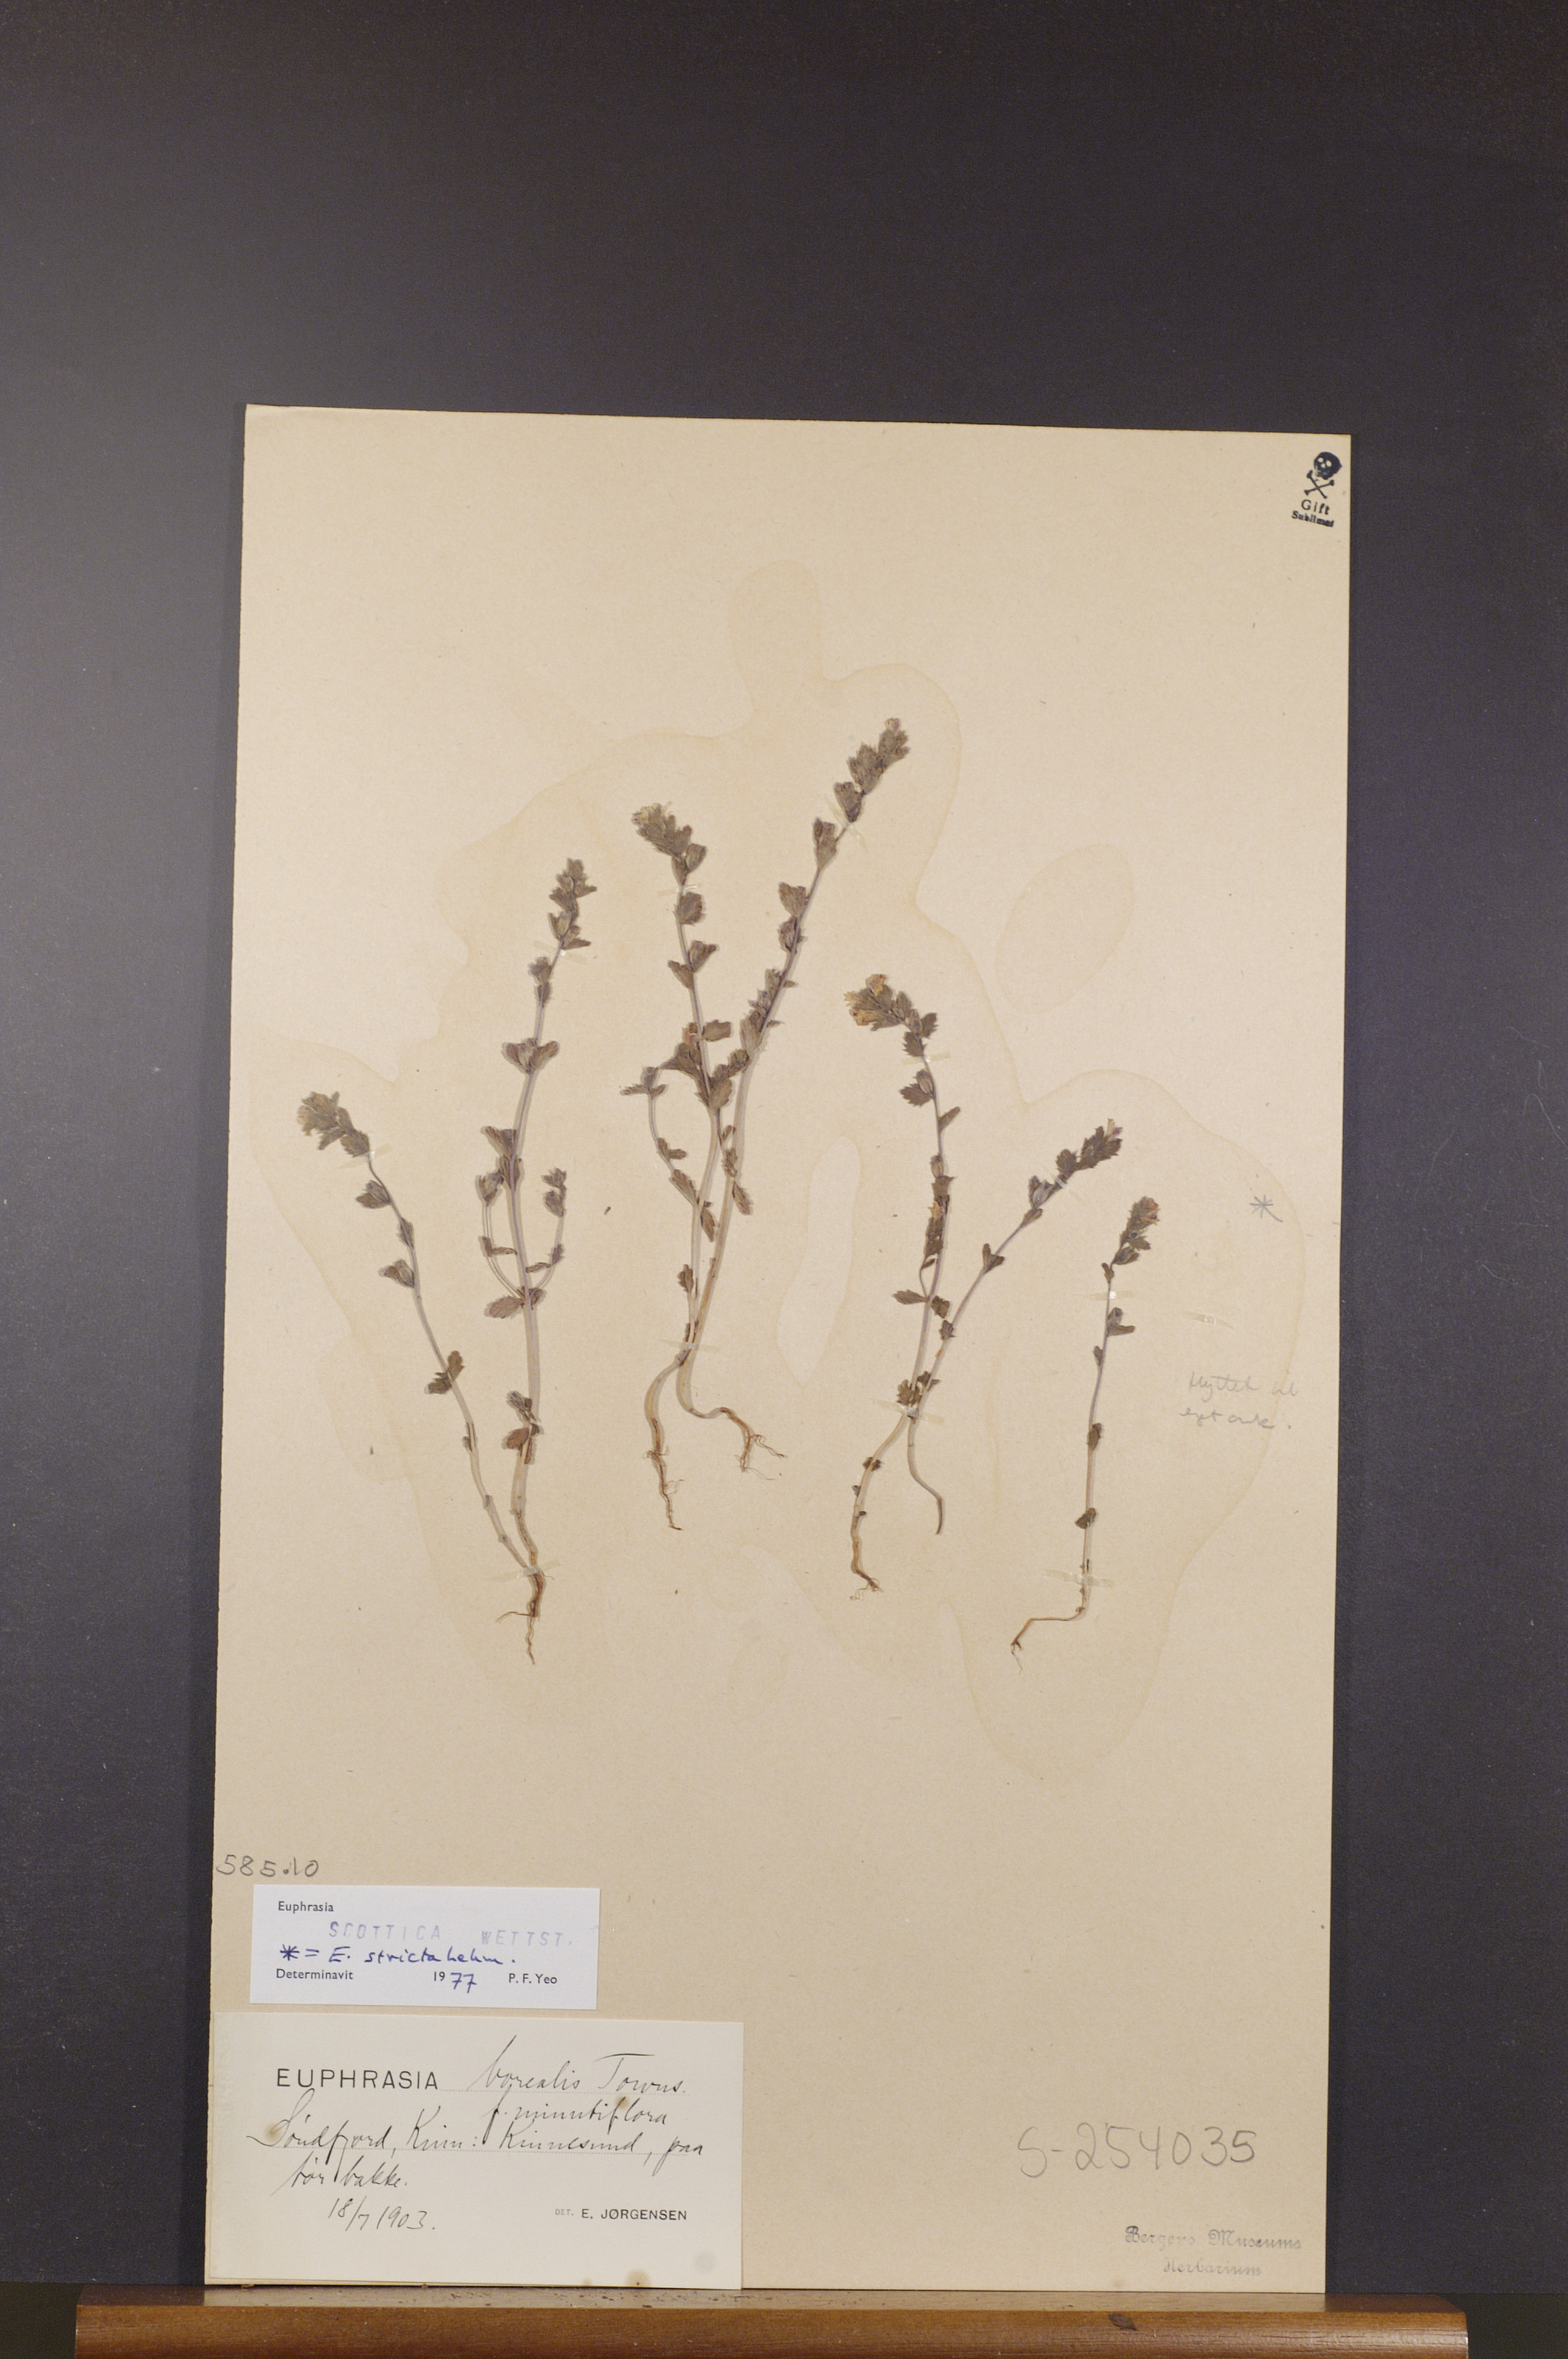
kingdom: Plantae
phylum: Tracheophyta
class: Magnoliopsida
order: Lamiales
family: Orobanchaceae
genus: Euphrasia
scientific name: Euphrasia scottica
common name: Slender scottish eyebright
